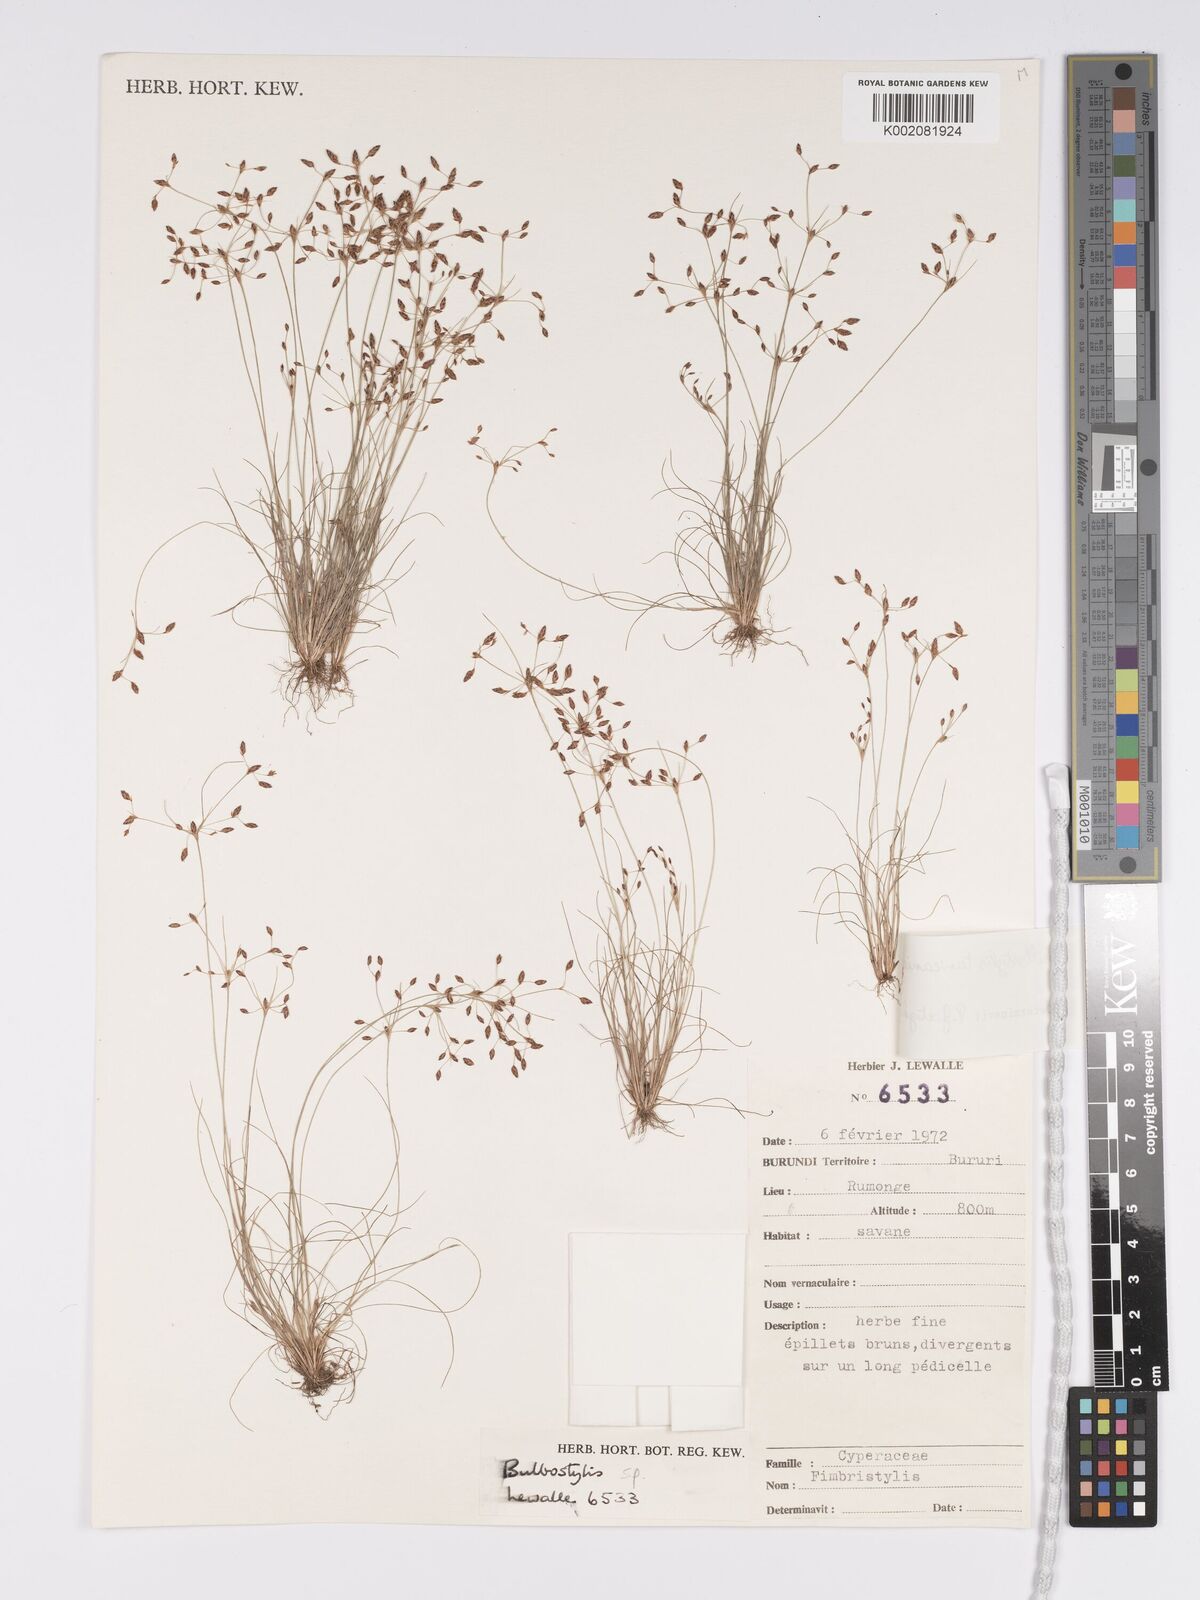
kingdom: Plantae
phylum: Tracheophyta
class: Liliopsida
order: Poales
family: Cyperaceae
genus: Bulbostylis
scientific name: Bulbostylis tanzaniae
